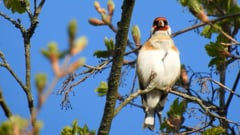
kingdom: Animalia
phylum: Chordata
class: Aves
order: Passeriformes
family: Fringillidae
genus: Carduelis
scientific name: Carduelis carduelis
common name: European goldfinch
